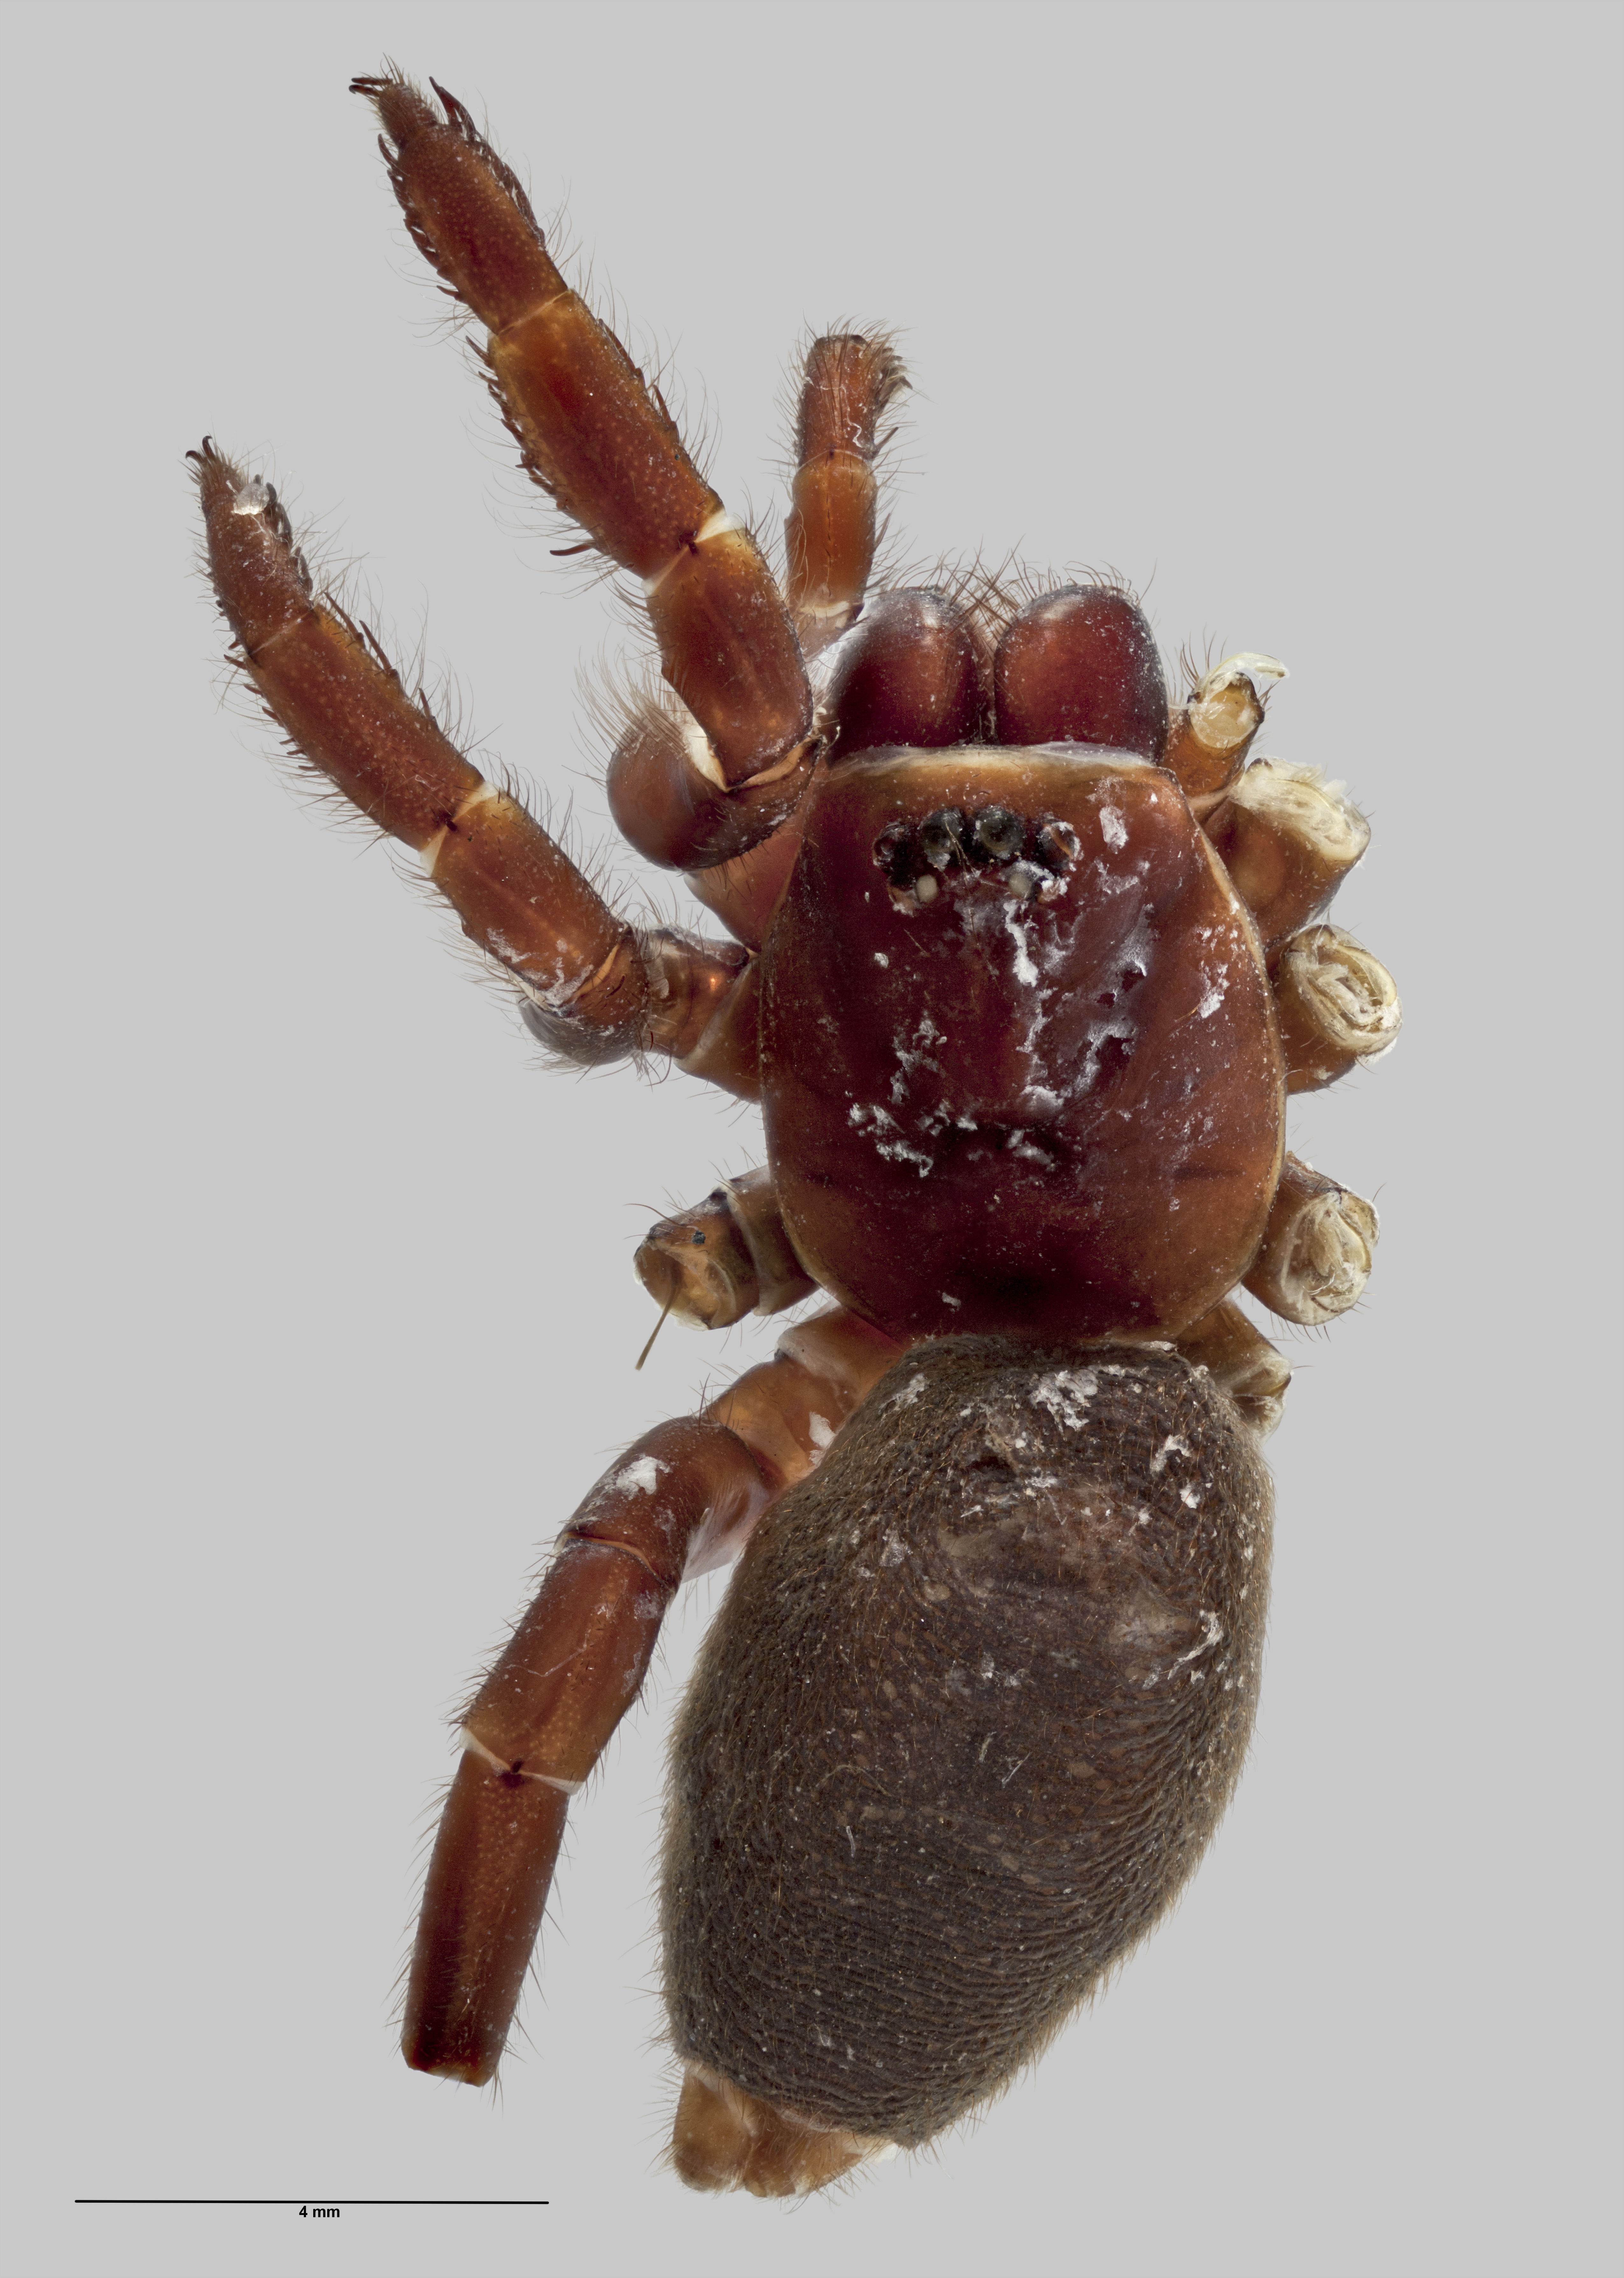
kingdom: Animalia
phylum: Arthropoda
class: Arachnida
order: Araneae
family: Migidae
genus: Migas
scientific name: Migas borealis
